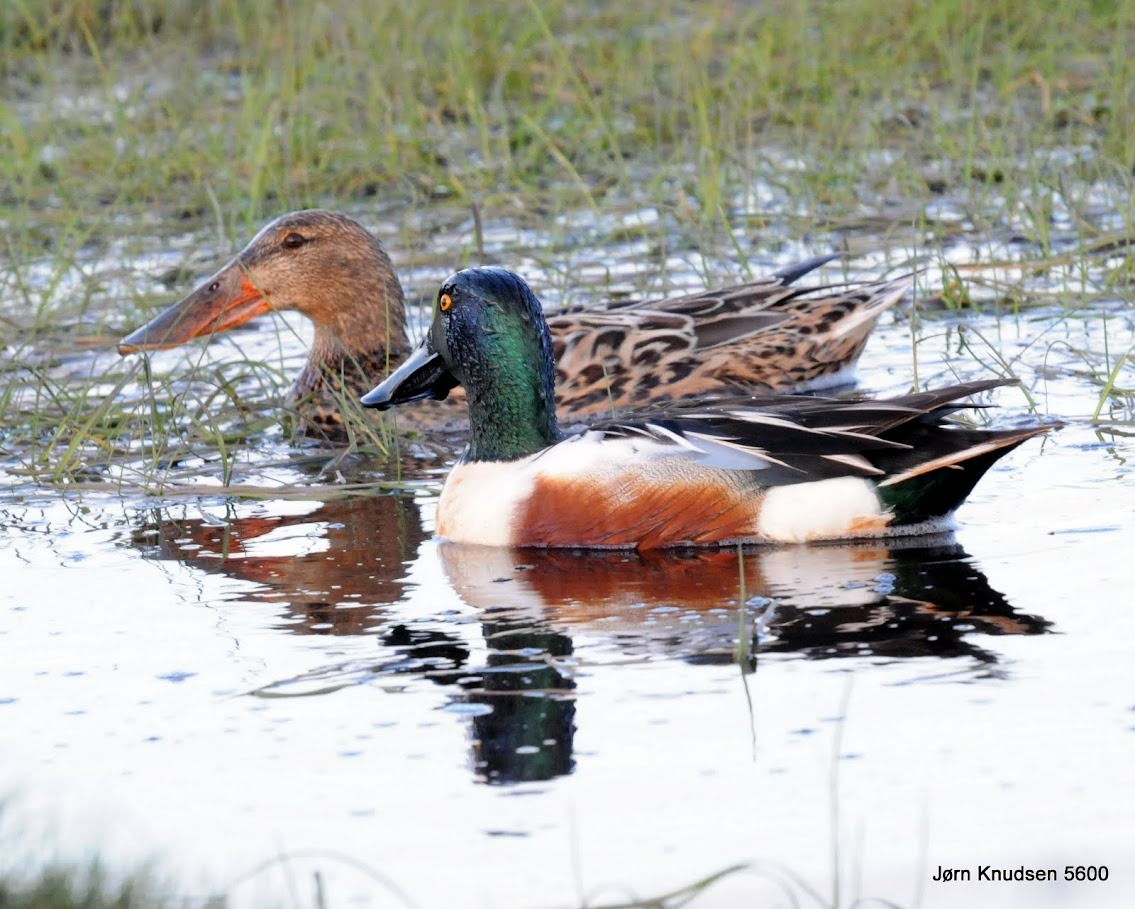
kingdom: Animalia
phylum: Chordata
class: Aves
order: Anseriformes
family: Anatidae
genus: Spatula
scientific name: Spatula clypeata
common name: Skeand
